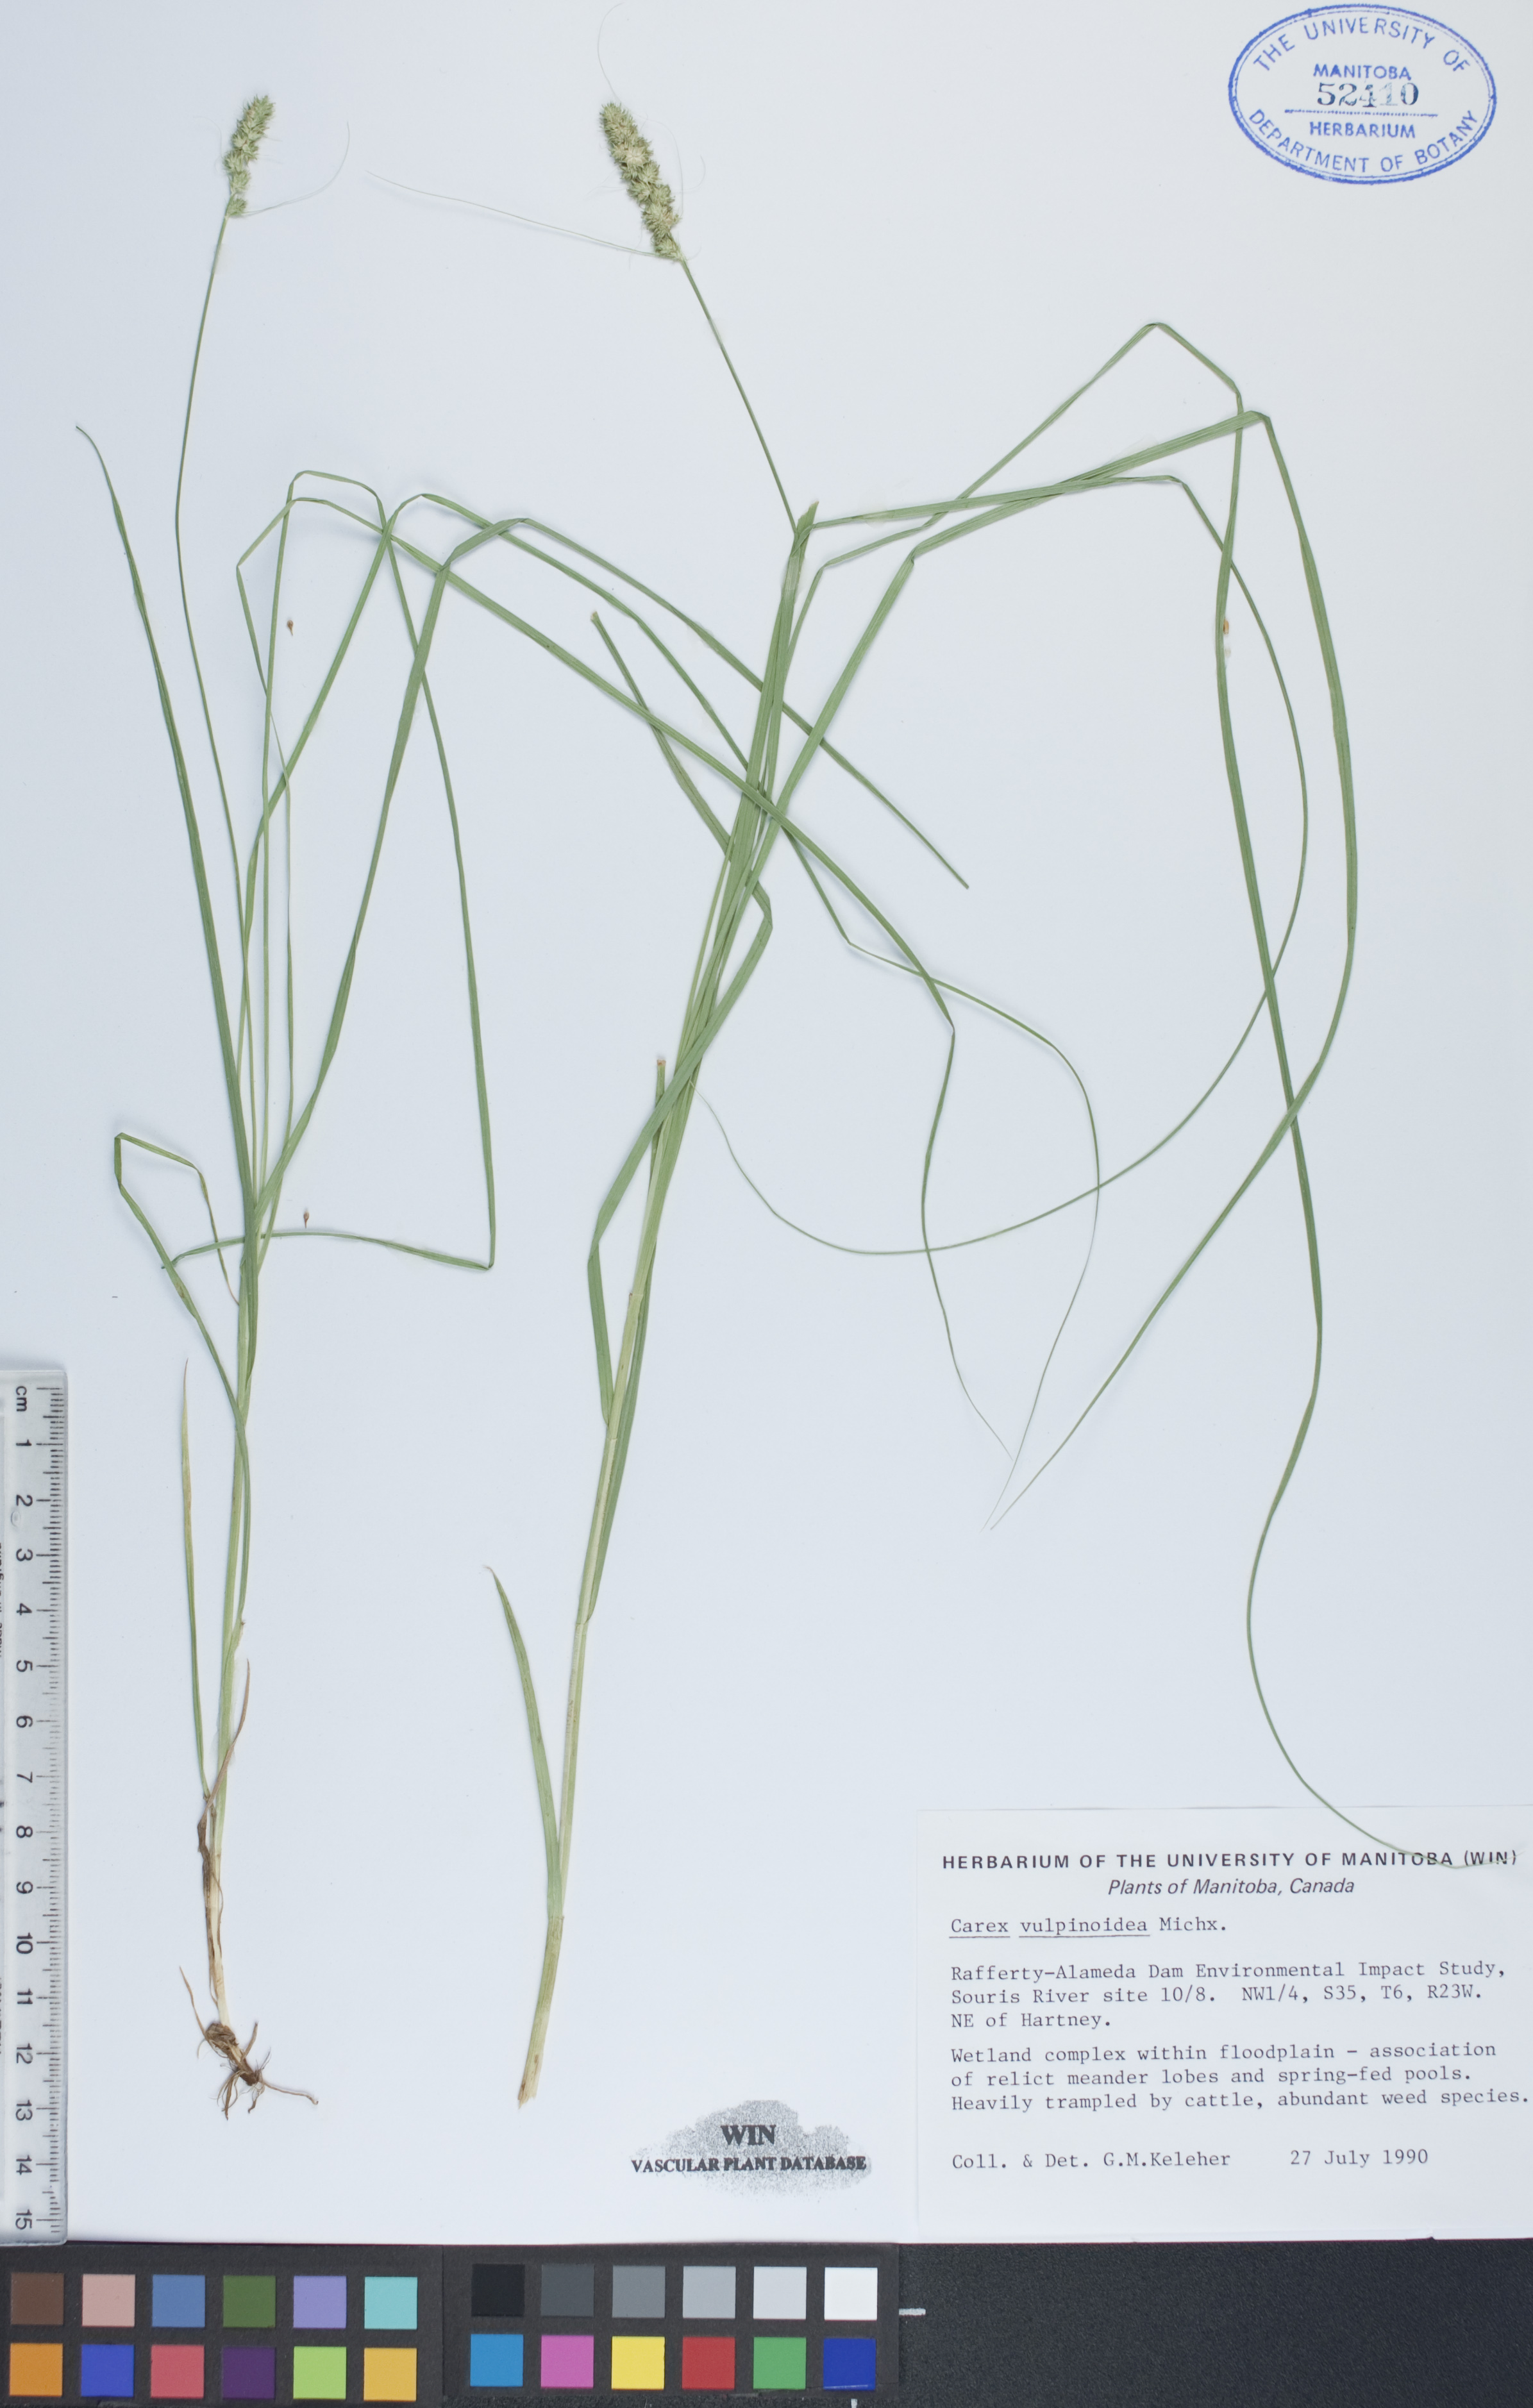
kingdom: Plantae
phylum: Tracheophyta
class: Liliopsida
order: Poales
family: Cyperaceae
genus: Carex
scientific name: Carex vulpinoidea
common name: American fox-sedge
